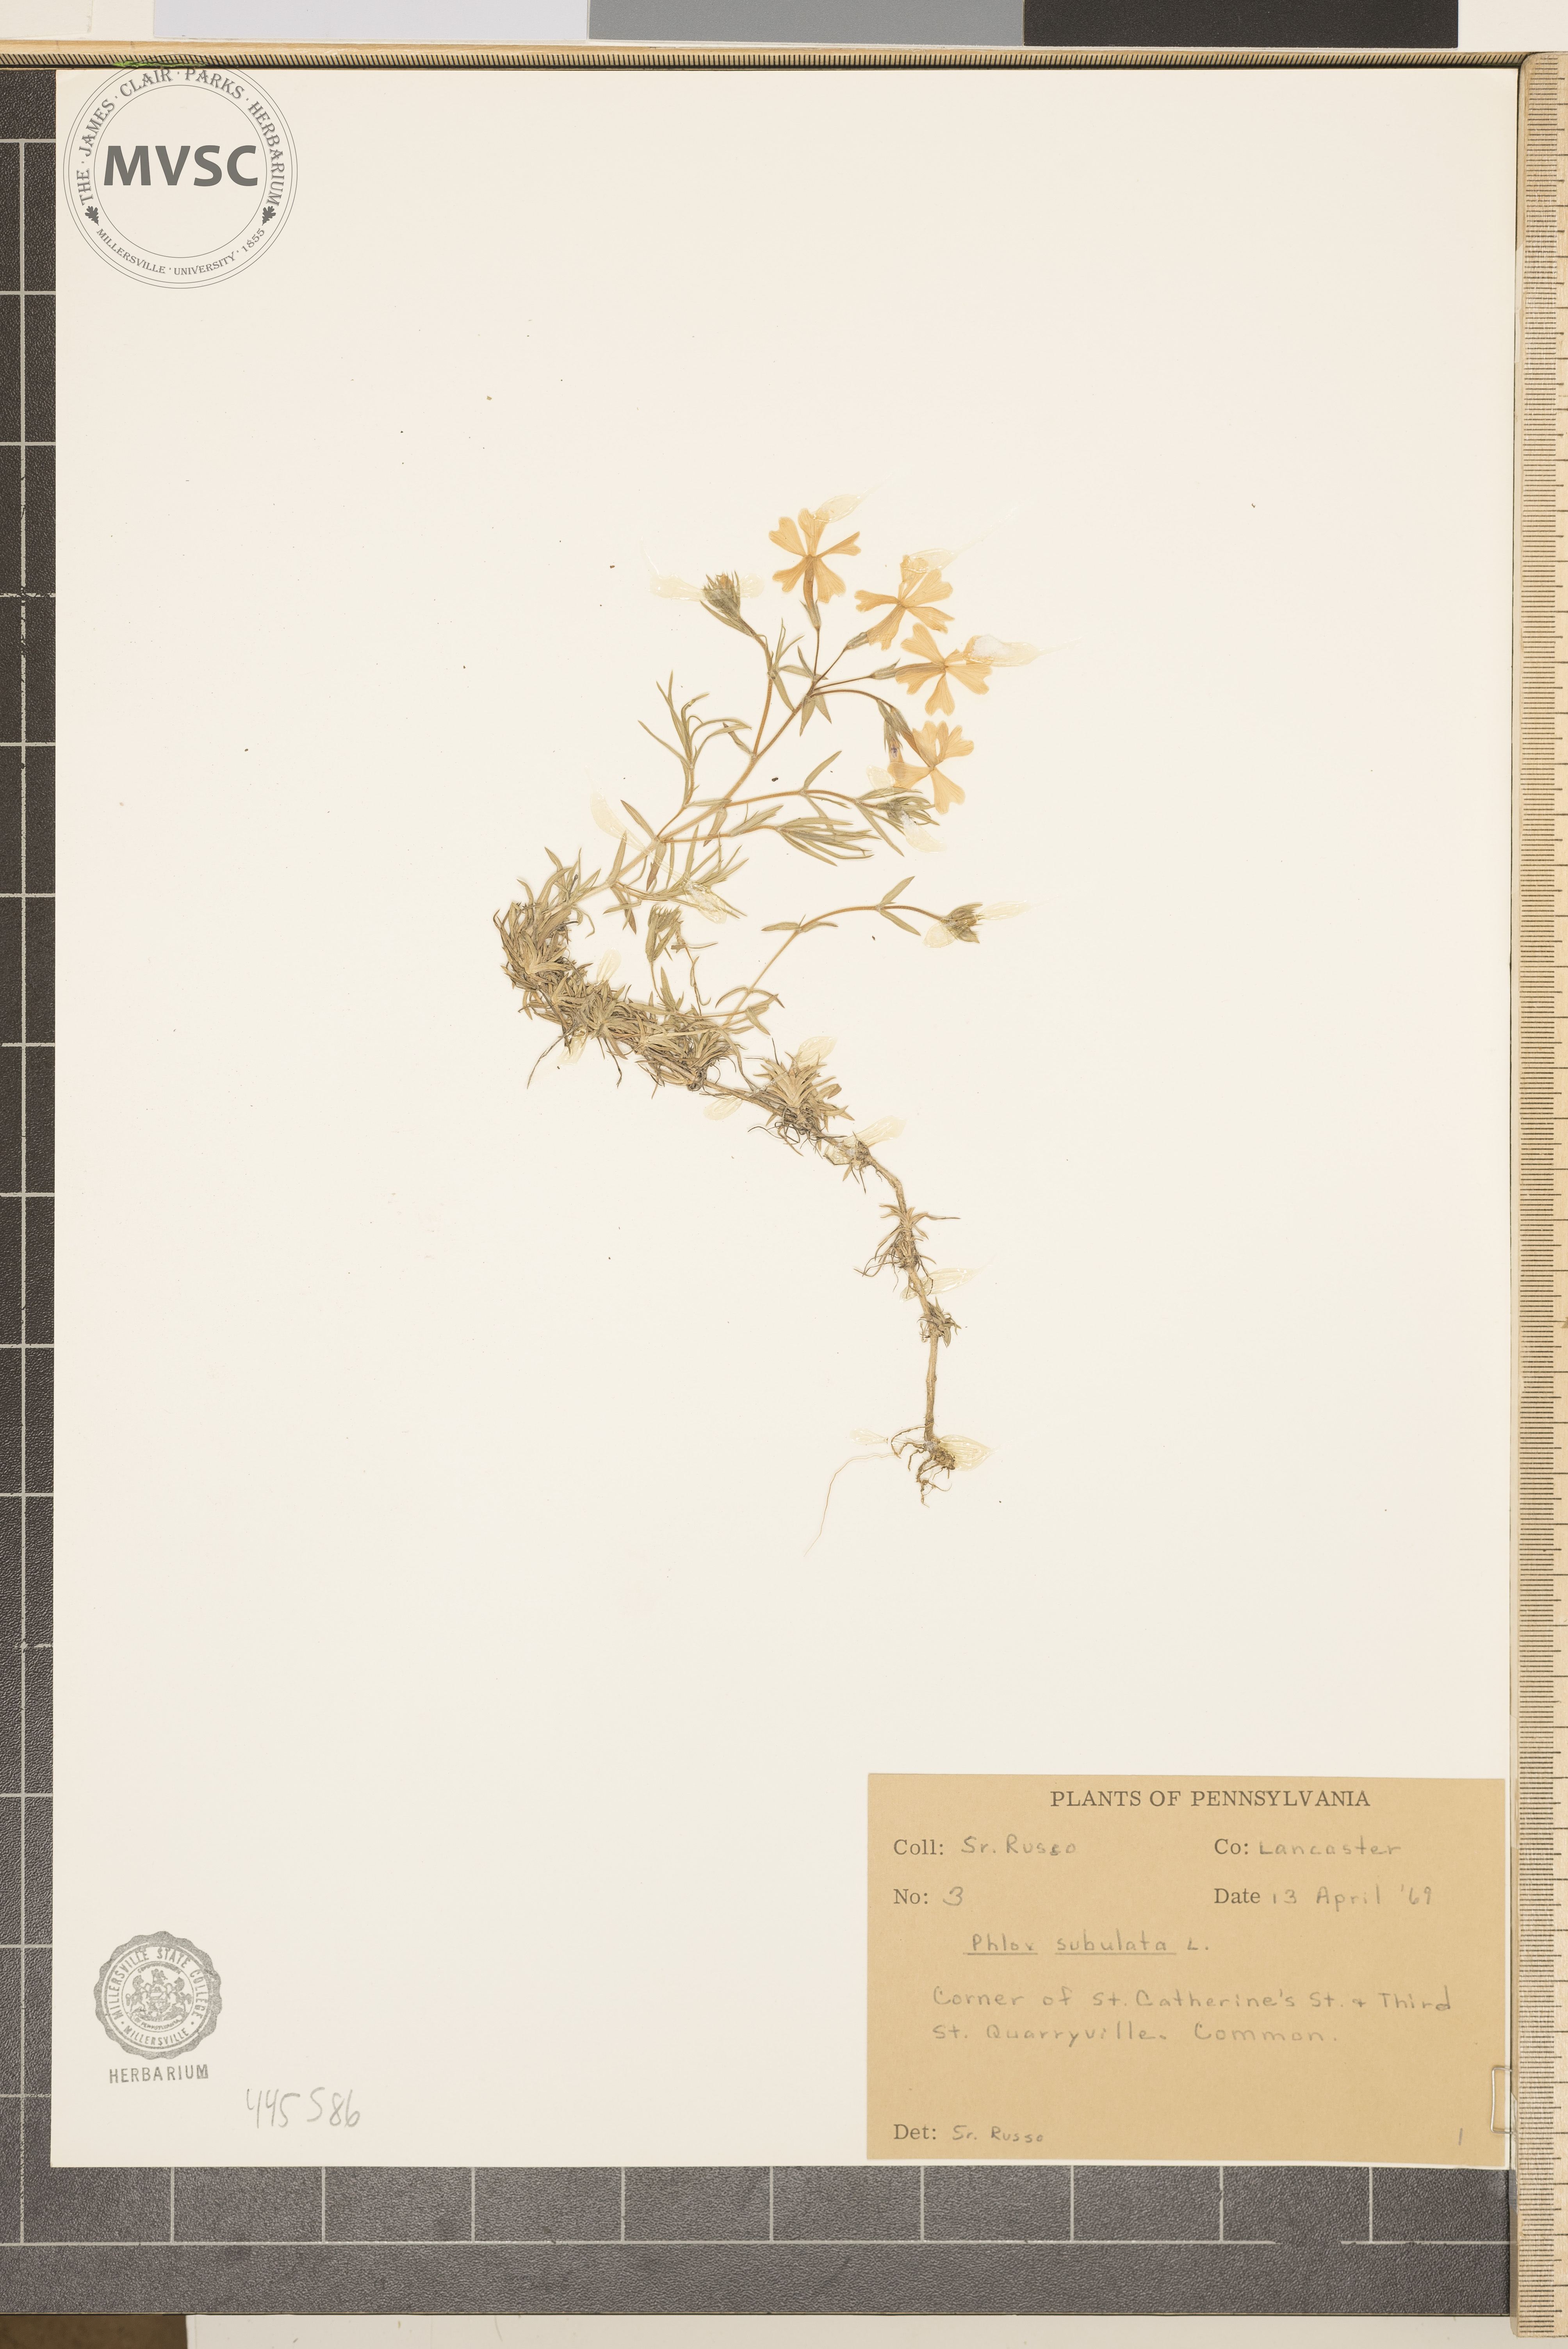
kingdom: Plantae
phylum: Tracheophyta
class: Magnoliopsida
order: Ericales
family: Polemoniaceae
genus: Phlox
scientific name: Phlox subulata
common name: Moss phlox
